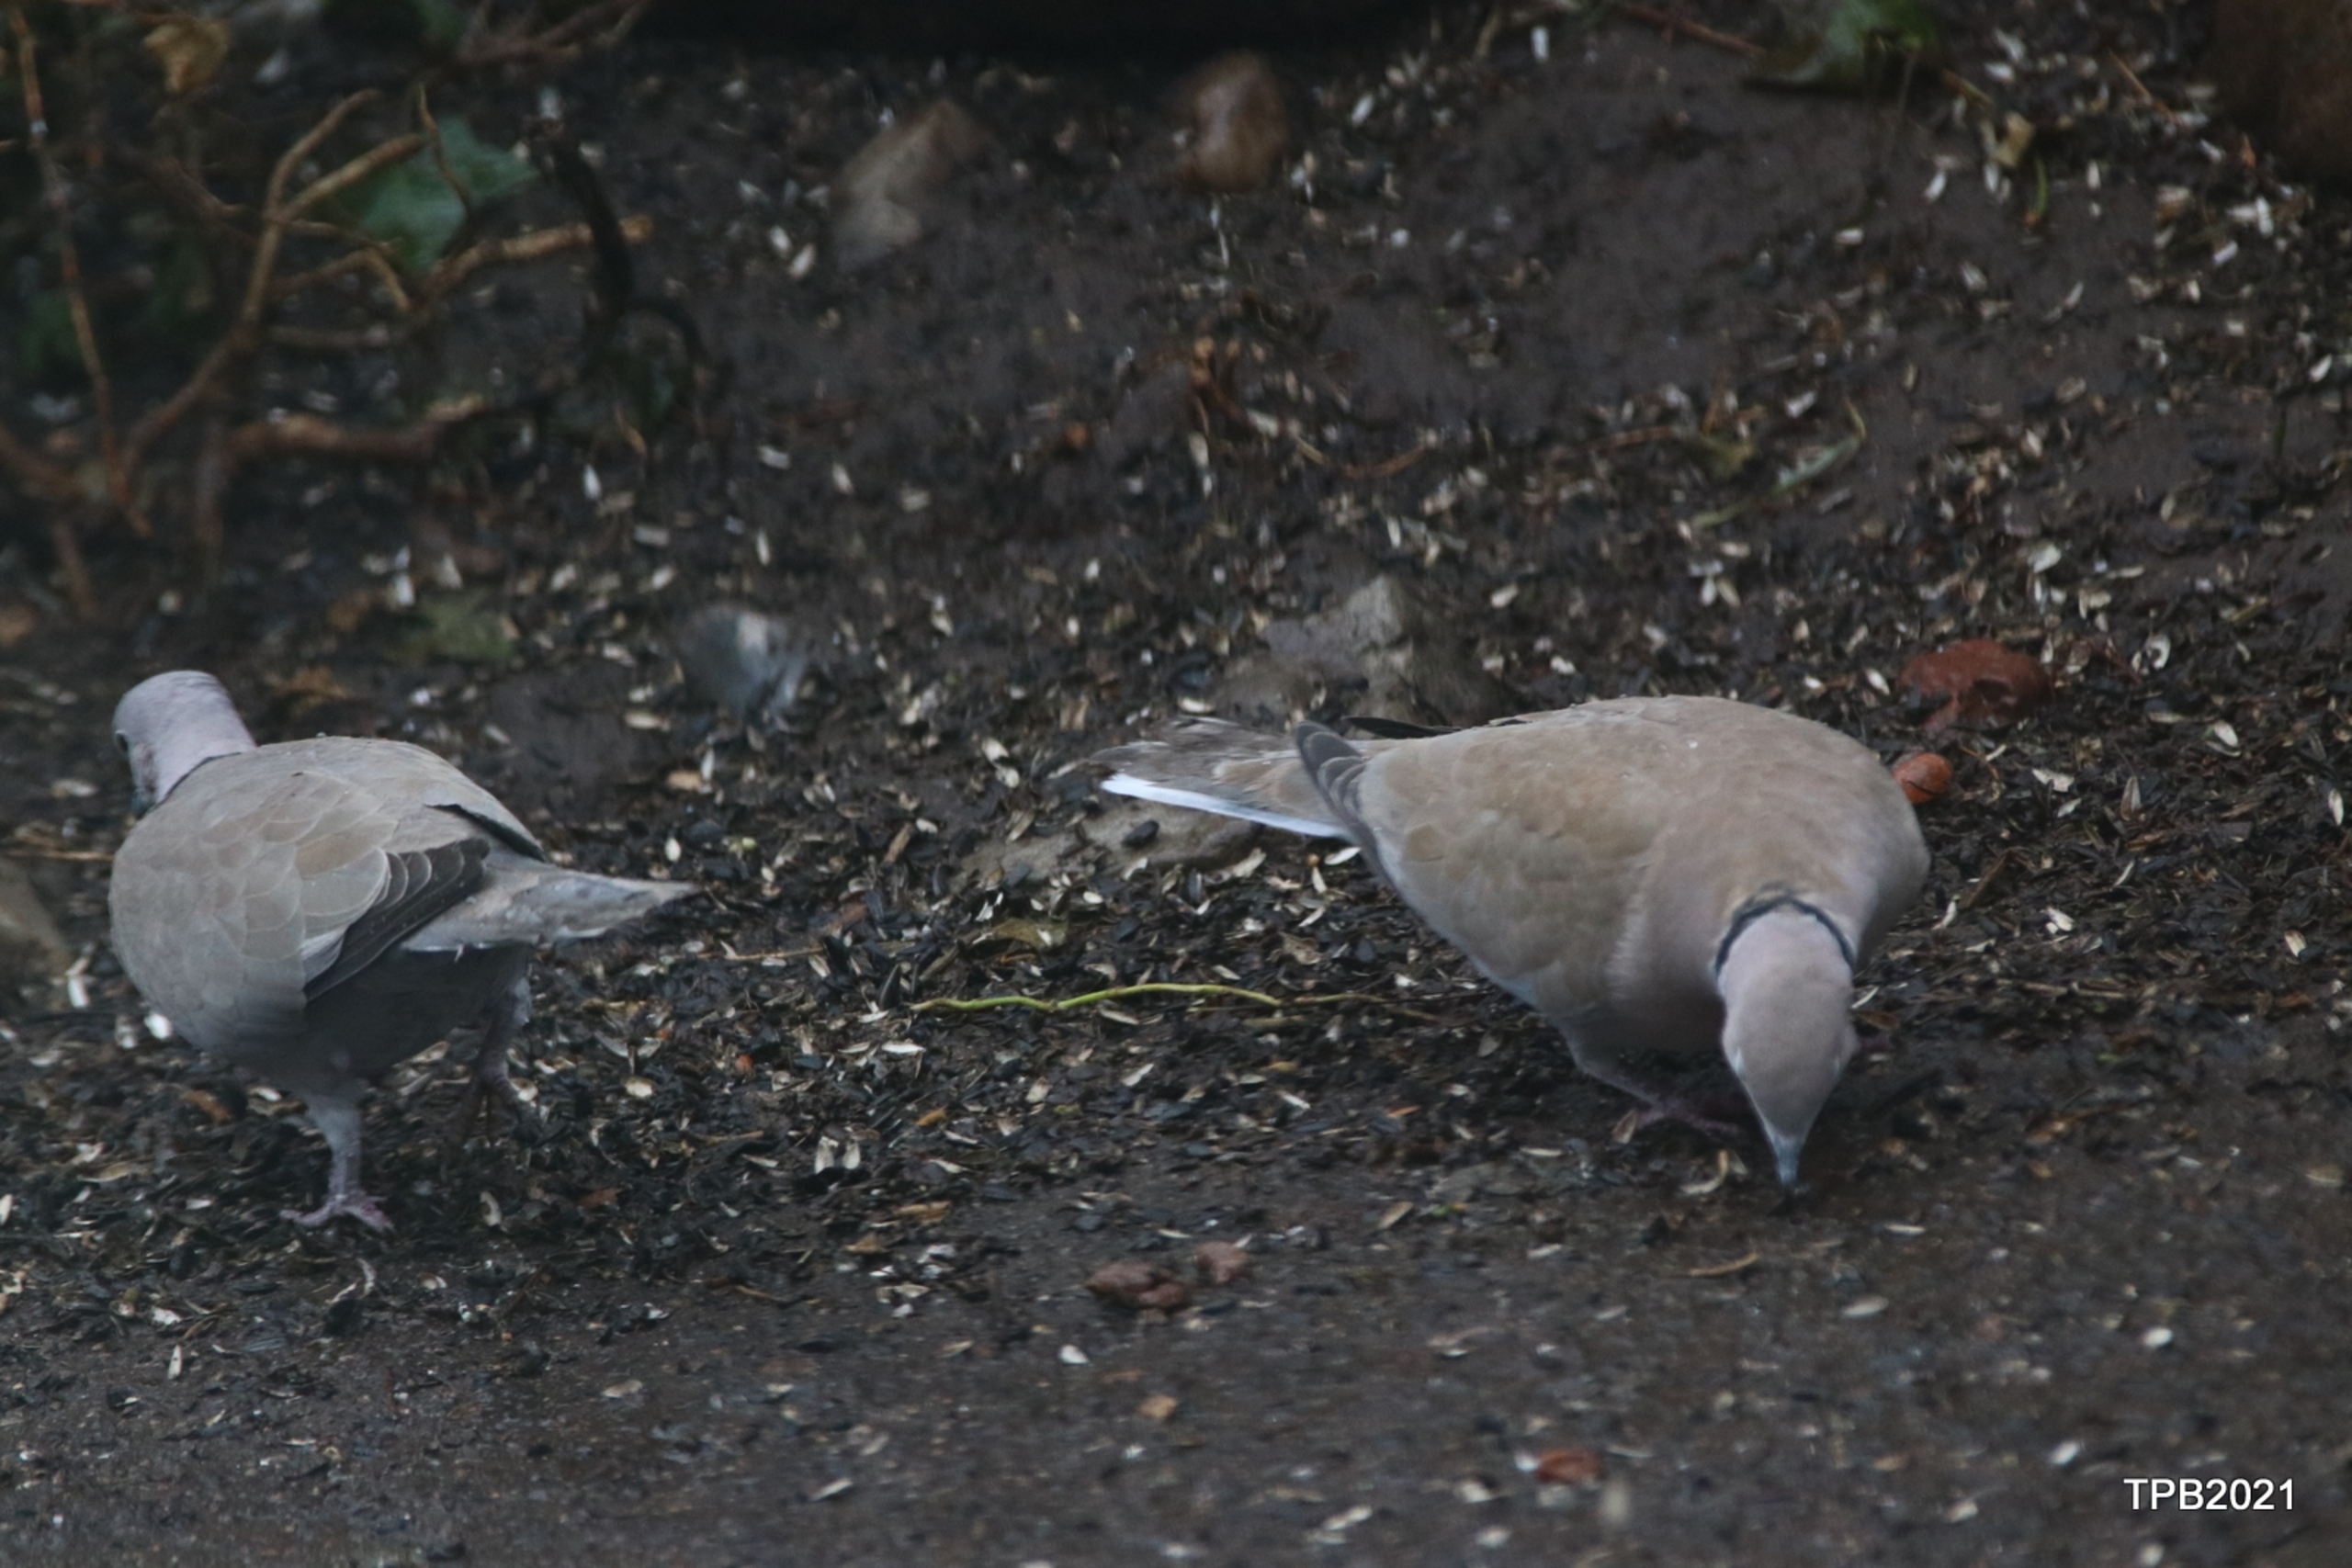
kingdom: Animalia
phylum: Chordata
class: Aves
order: Columbiformes
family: Columbidae
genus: Streptopelia
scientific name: Streptopelia decaocto
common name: Tyrkerdue
